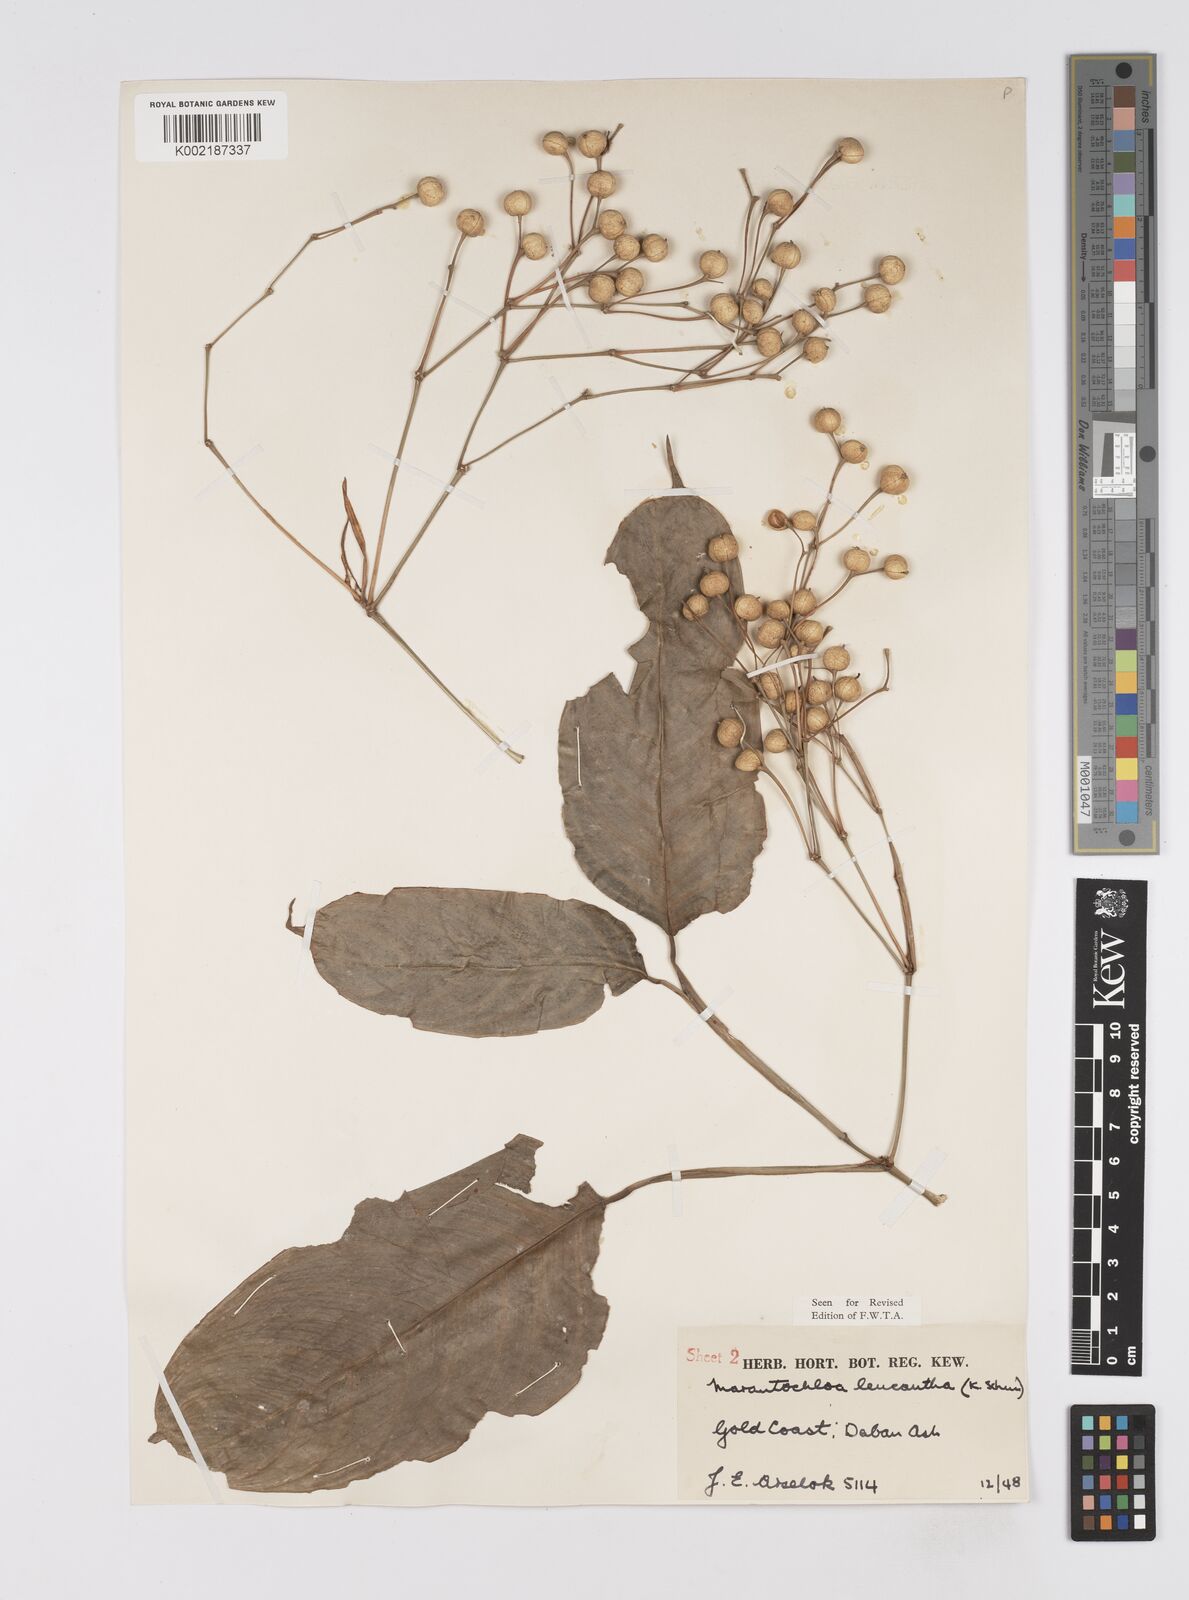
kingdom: Plantae
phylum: Tracheophyta
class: Liliopsida
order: Zingiberales
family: Marantaceae
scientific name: Marantaceae
